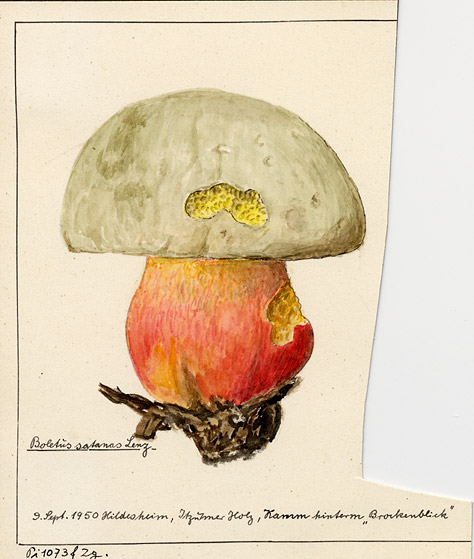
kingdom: Fungi
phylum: Basidiomycota
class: Agaricomycetes
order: Boletales
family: Boletaceae
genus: Rubroboletus
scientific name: Rubroboletus satanas
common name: Devil's bolete
